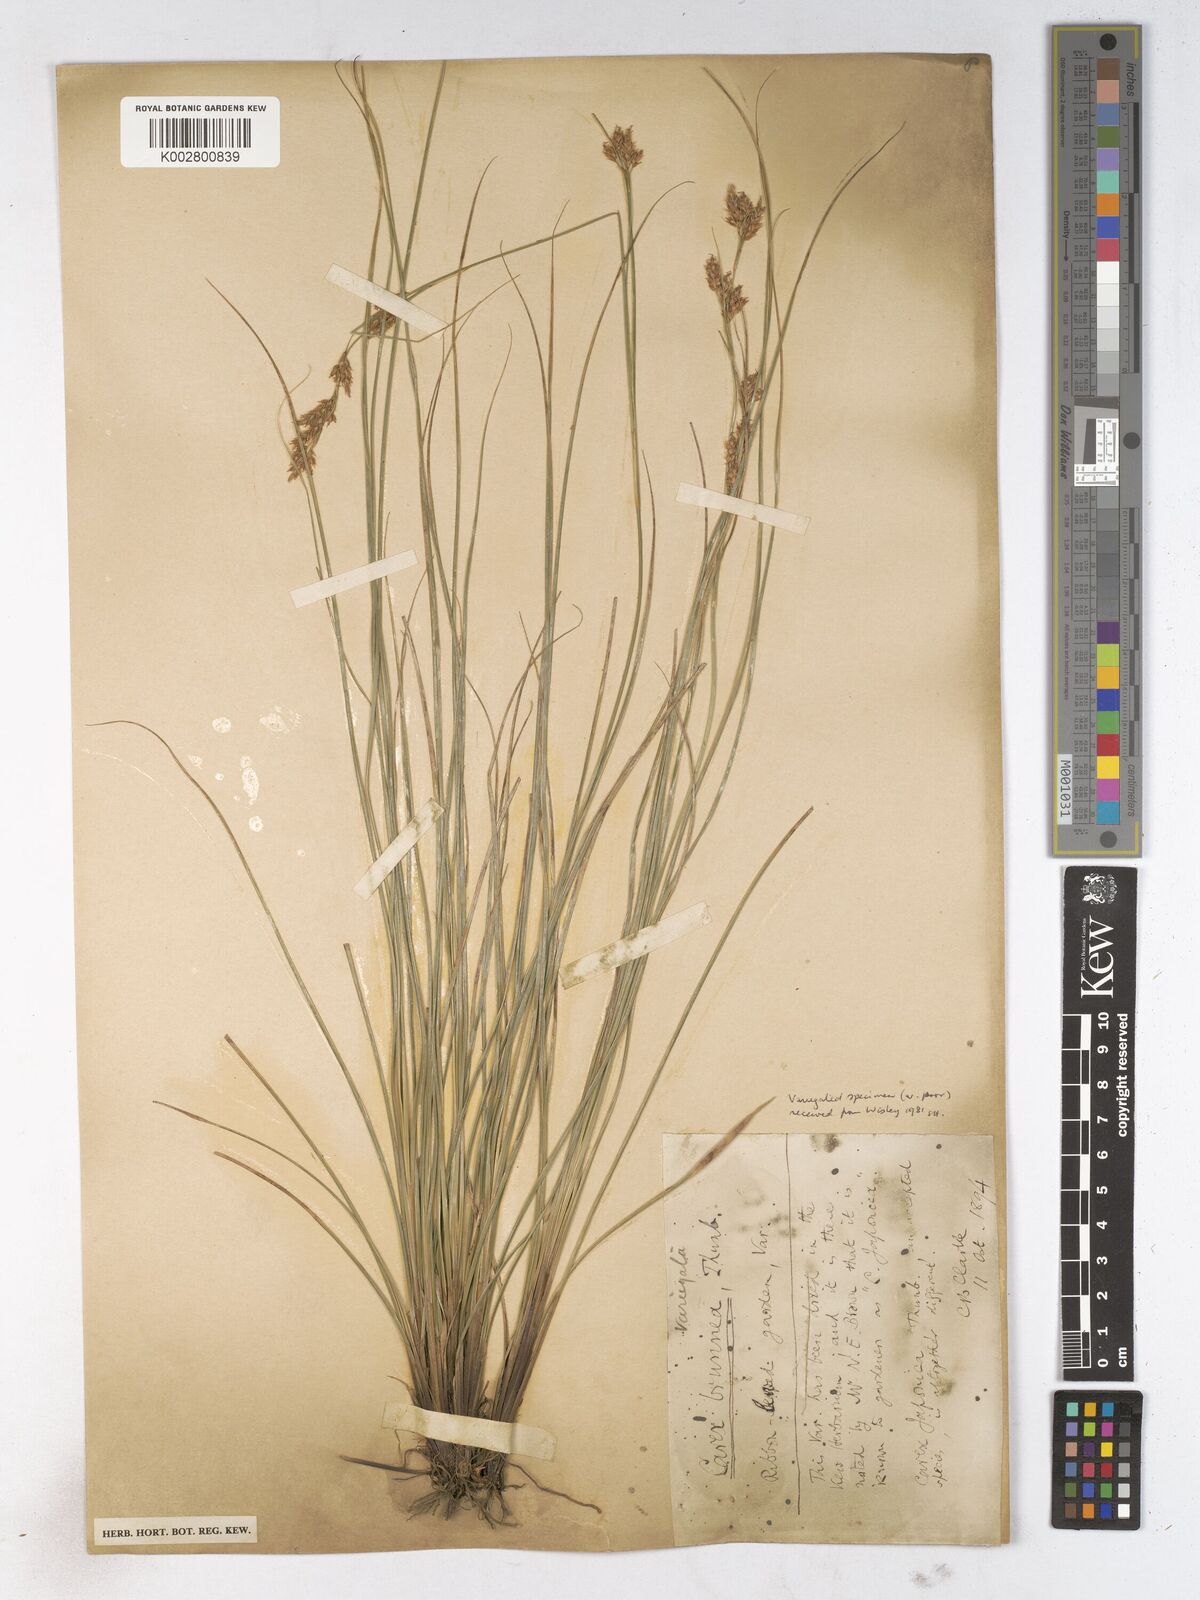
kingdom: Plantae
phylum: Tracheophyta
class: Liliopsida
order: Poales
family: Cyperaceae
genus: Carex
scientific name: Carex breviculmis
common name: Asian shortstem sedge
